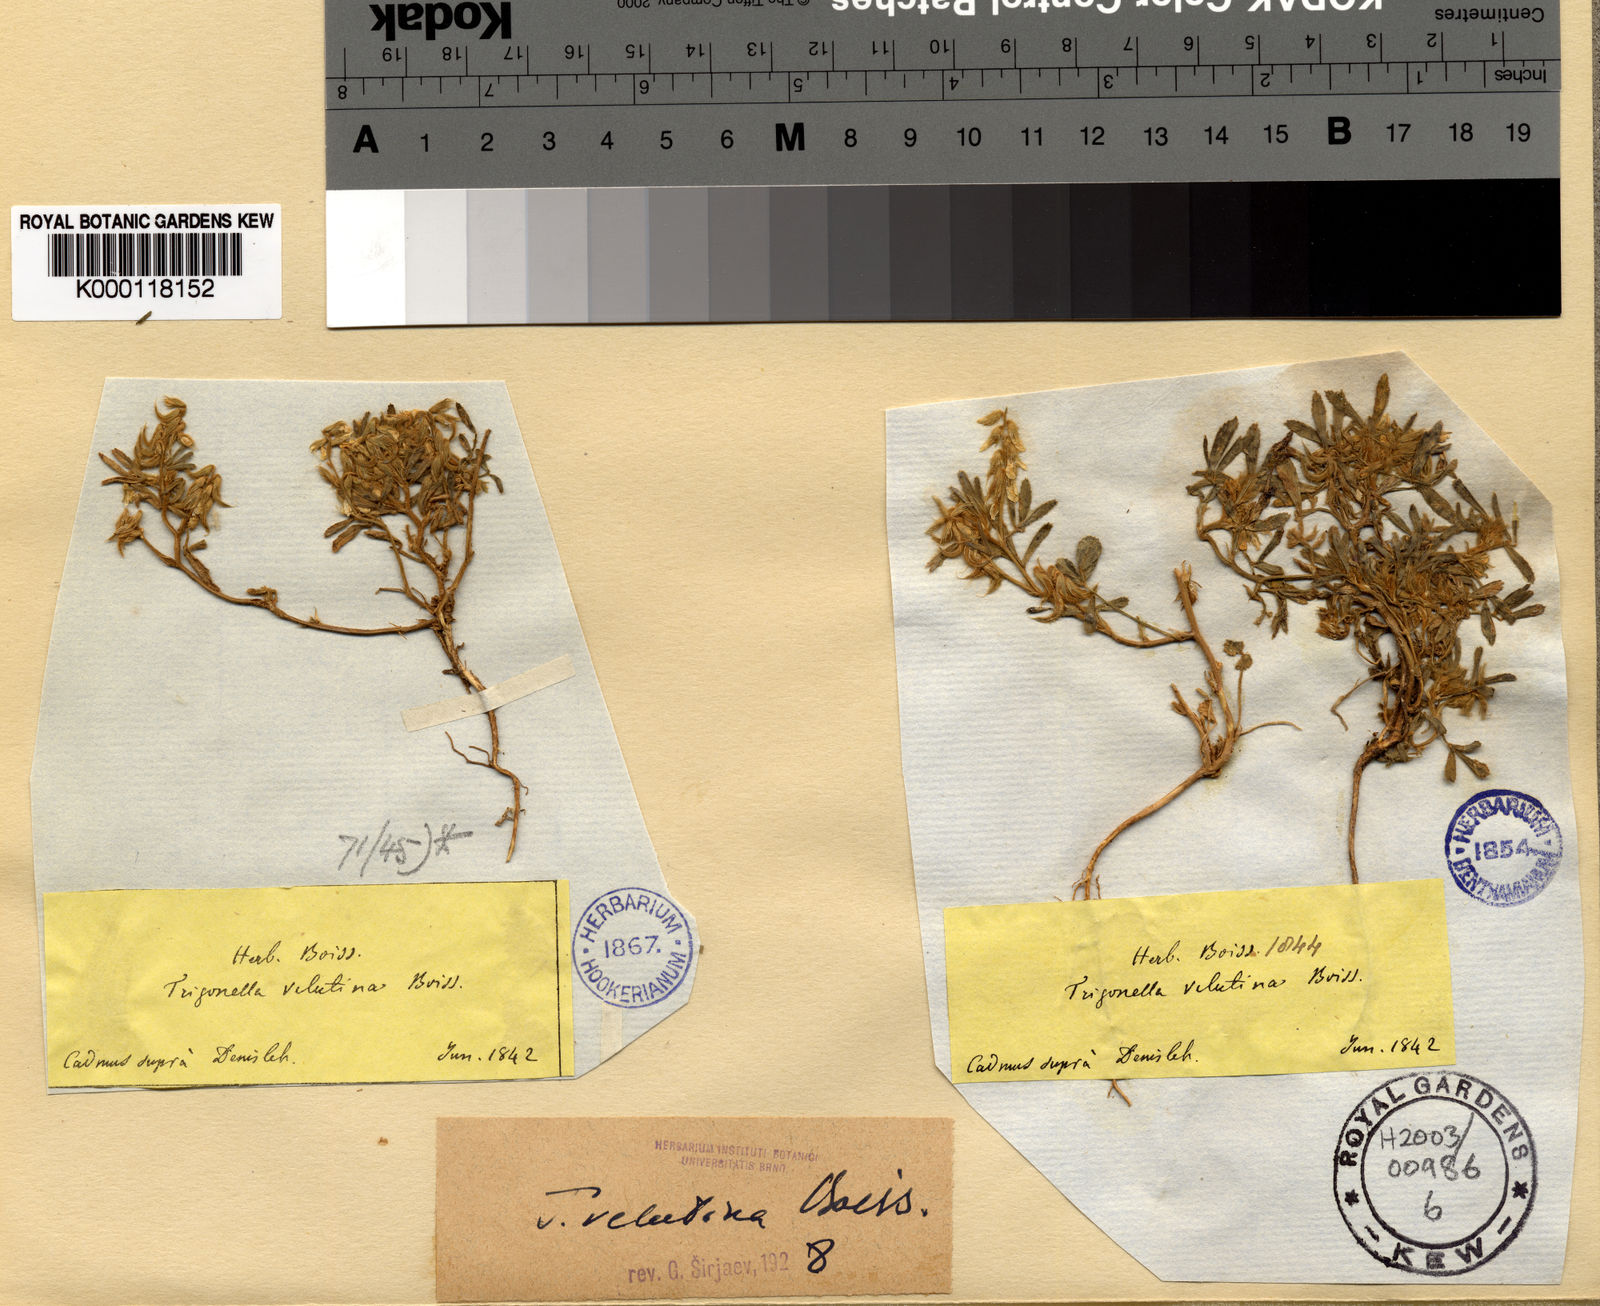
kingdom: Plantae
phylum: Tracheophyta
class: Magnoliopsida
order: Fabales
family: Fabaceae
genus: Trigonella
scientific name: Trigonella velutina
